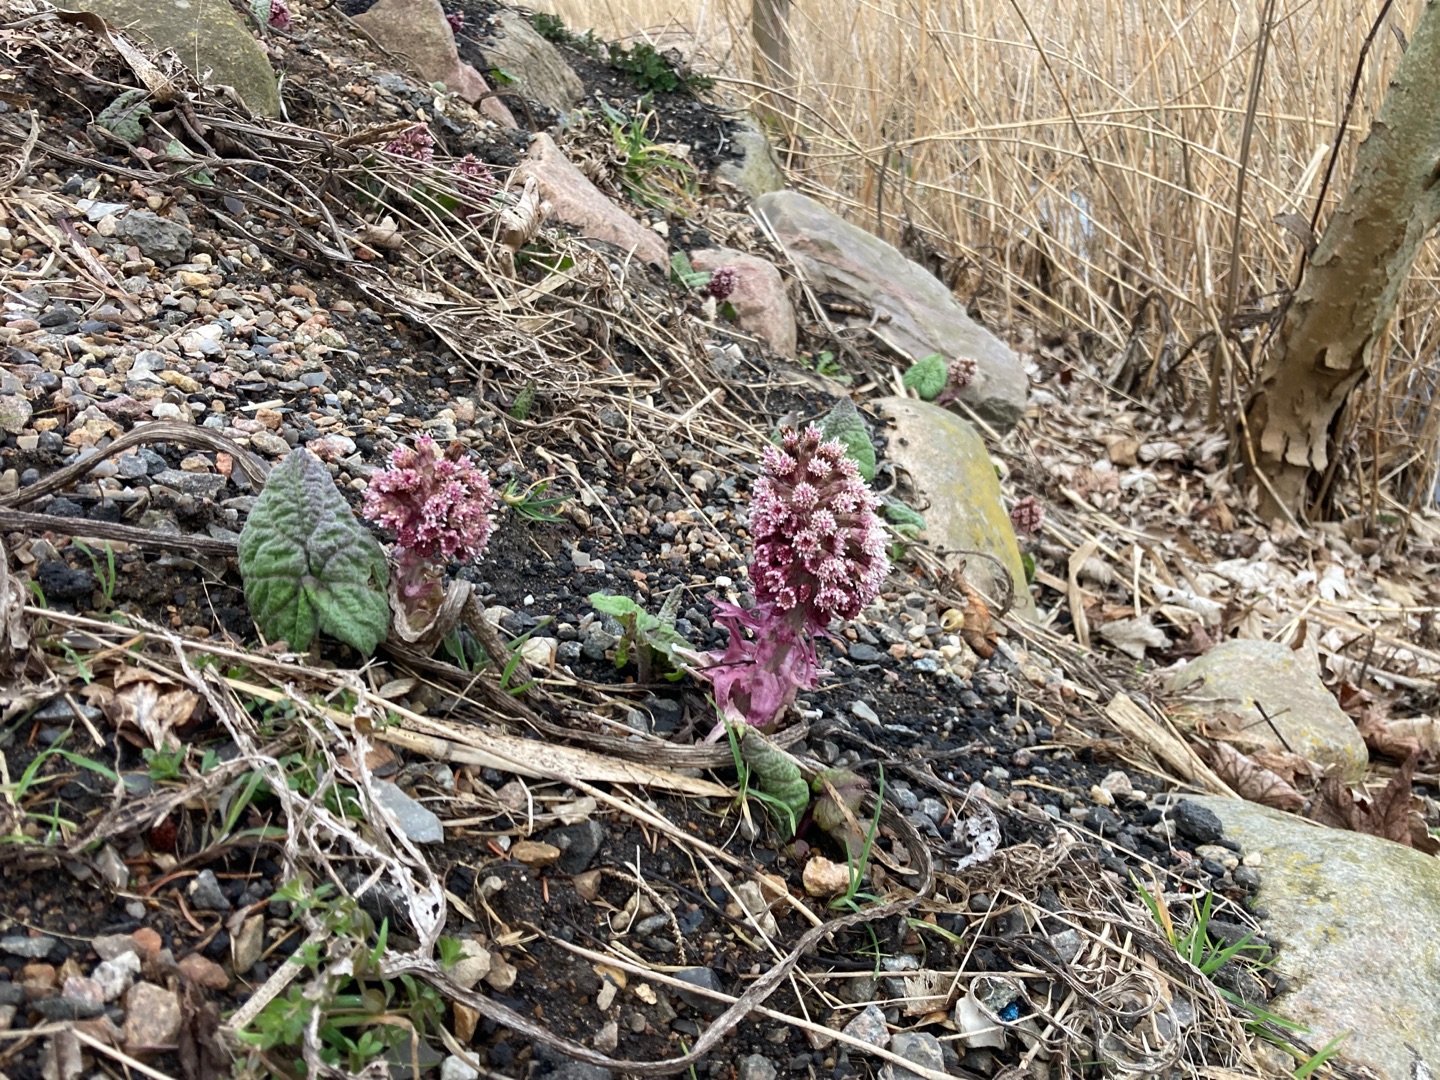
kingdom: Plantae
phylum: Tracheophyta
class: Magnoliopsida
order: Asterales
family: Asteraceae
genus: Petasites
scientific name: Petasites hybridus
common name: Rød hestehov
